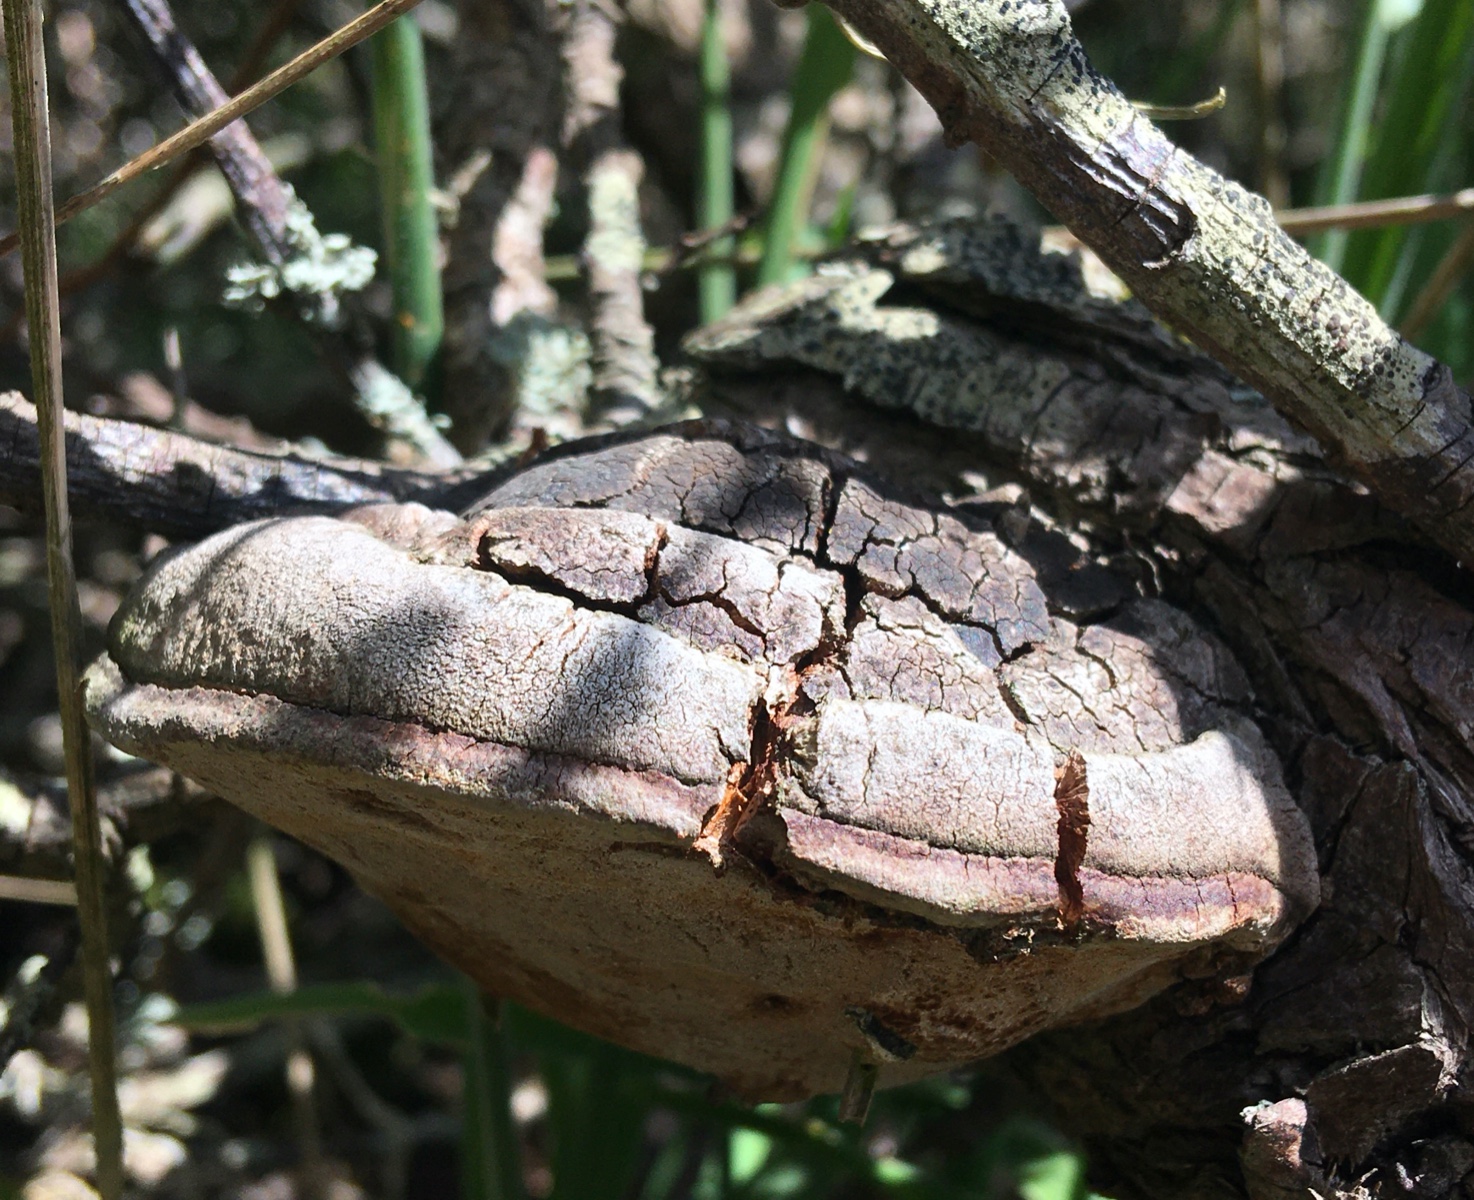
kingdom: Fungi
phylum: Basidiomycota
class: Agaricomycetes
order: Hymenochaetales
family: Hymenochaetaceae
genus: Fomitiporia
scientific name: Fomitiporia hippophaeicola
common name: havtorn-ildporesvamp
